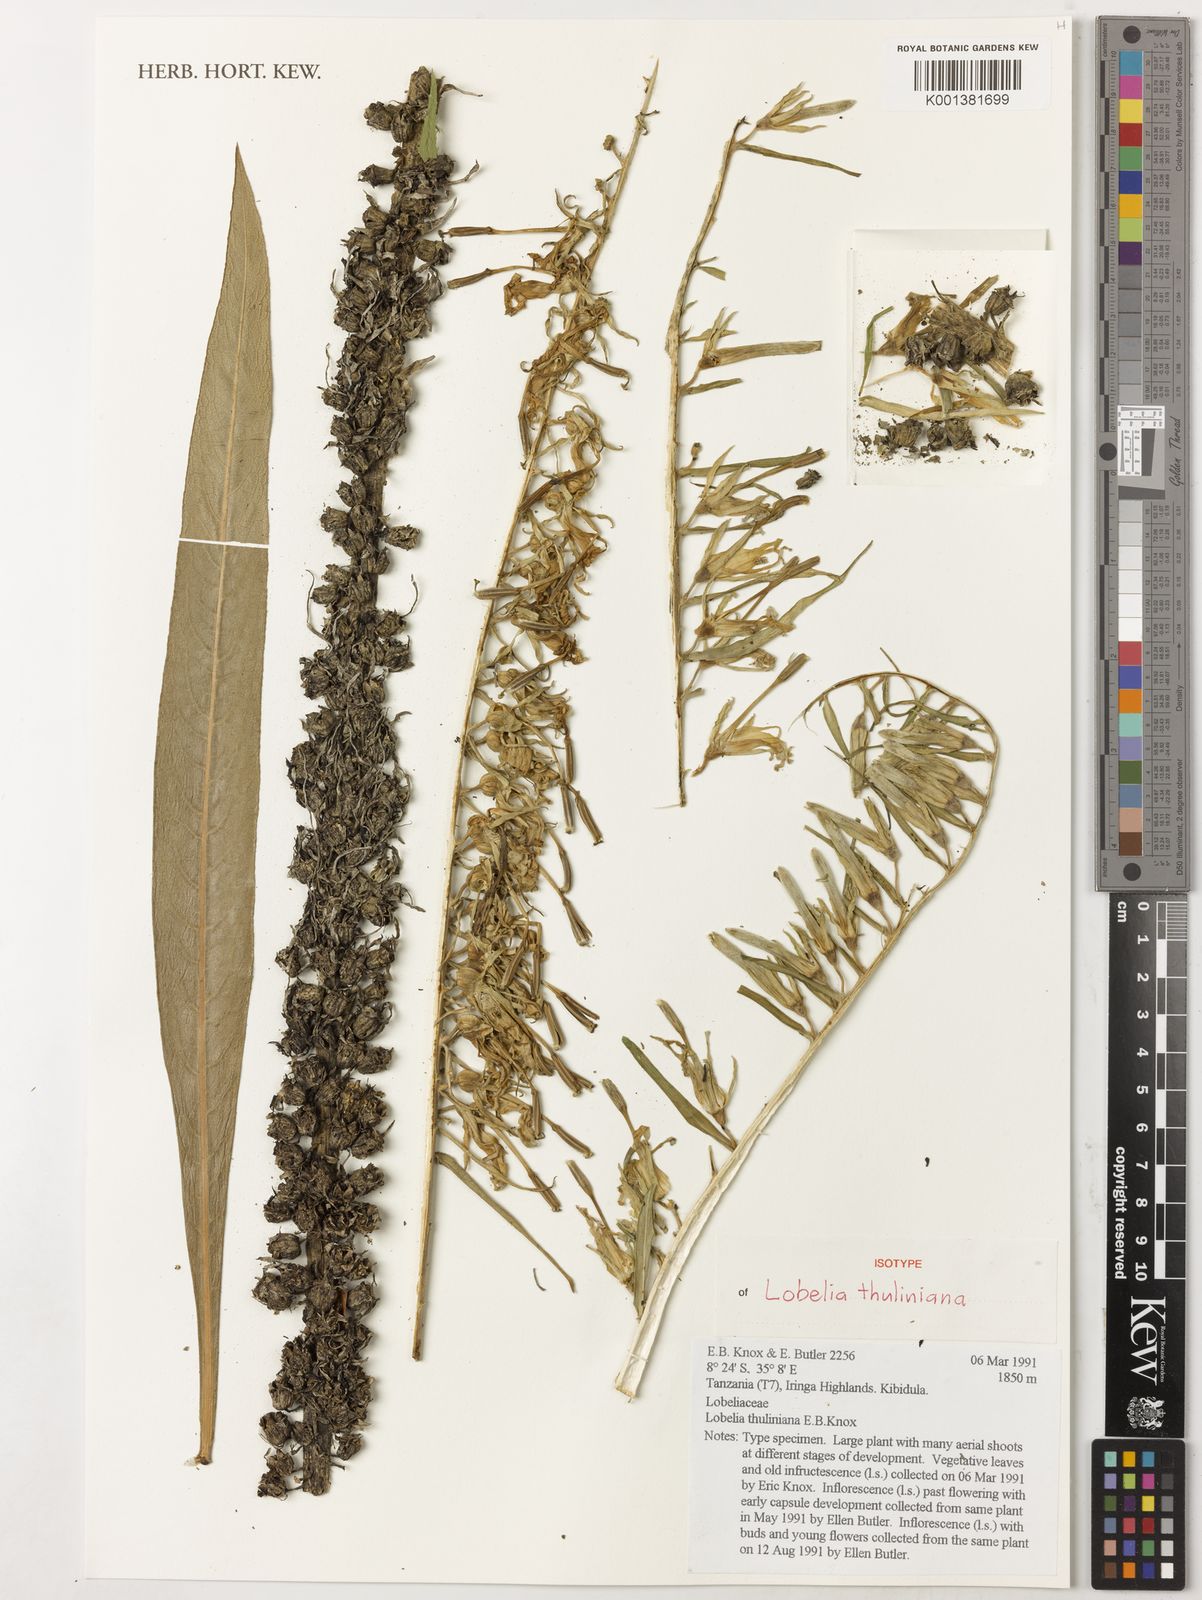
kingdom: Plantae
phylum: Tracheophyta
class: Magnoliopsida
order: Asterales
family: Campanulaceae
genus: Lobelia
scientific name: Lobelia thuliniana
